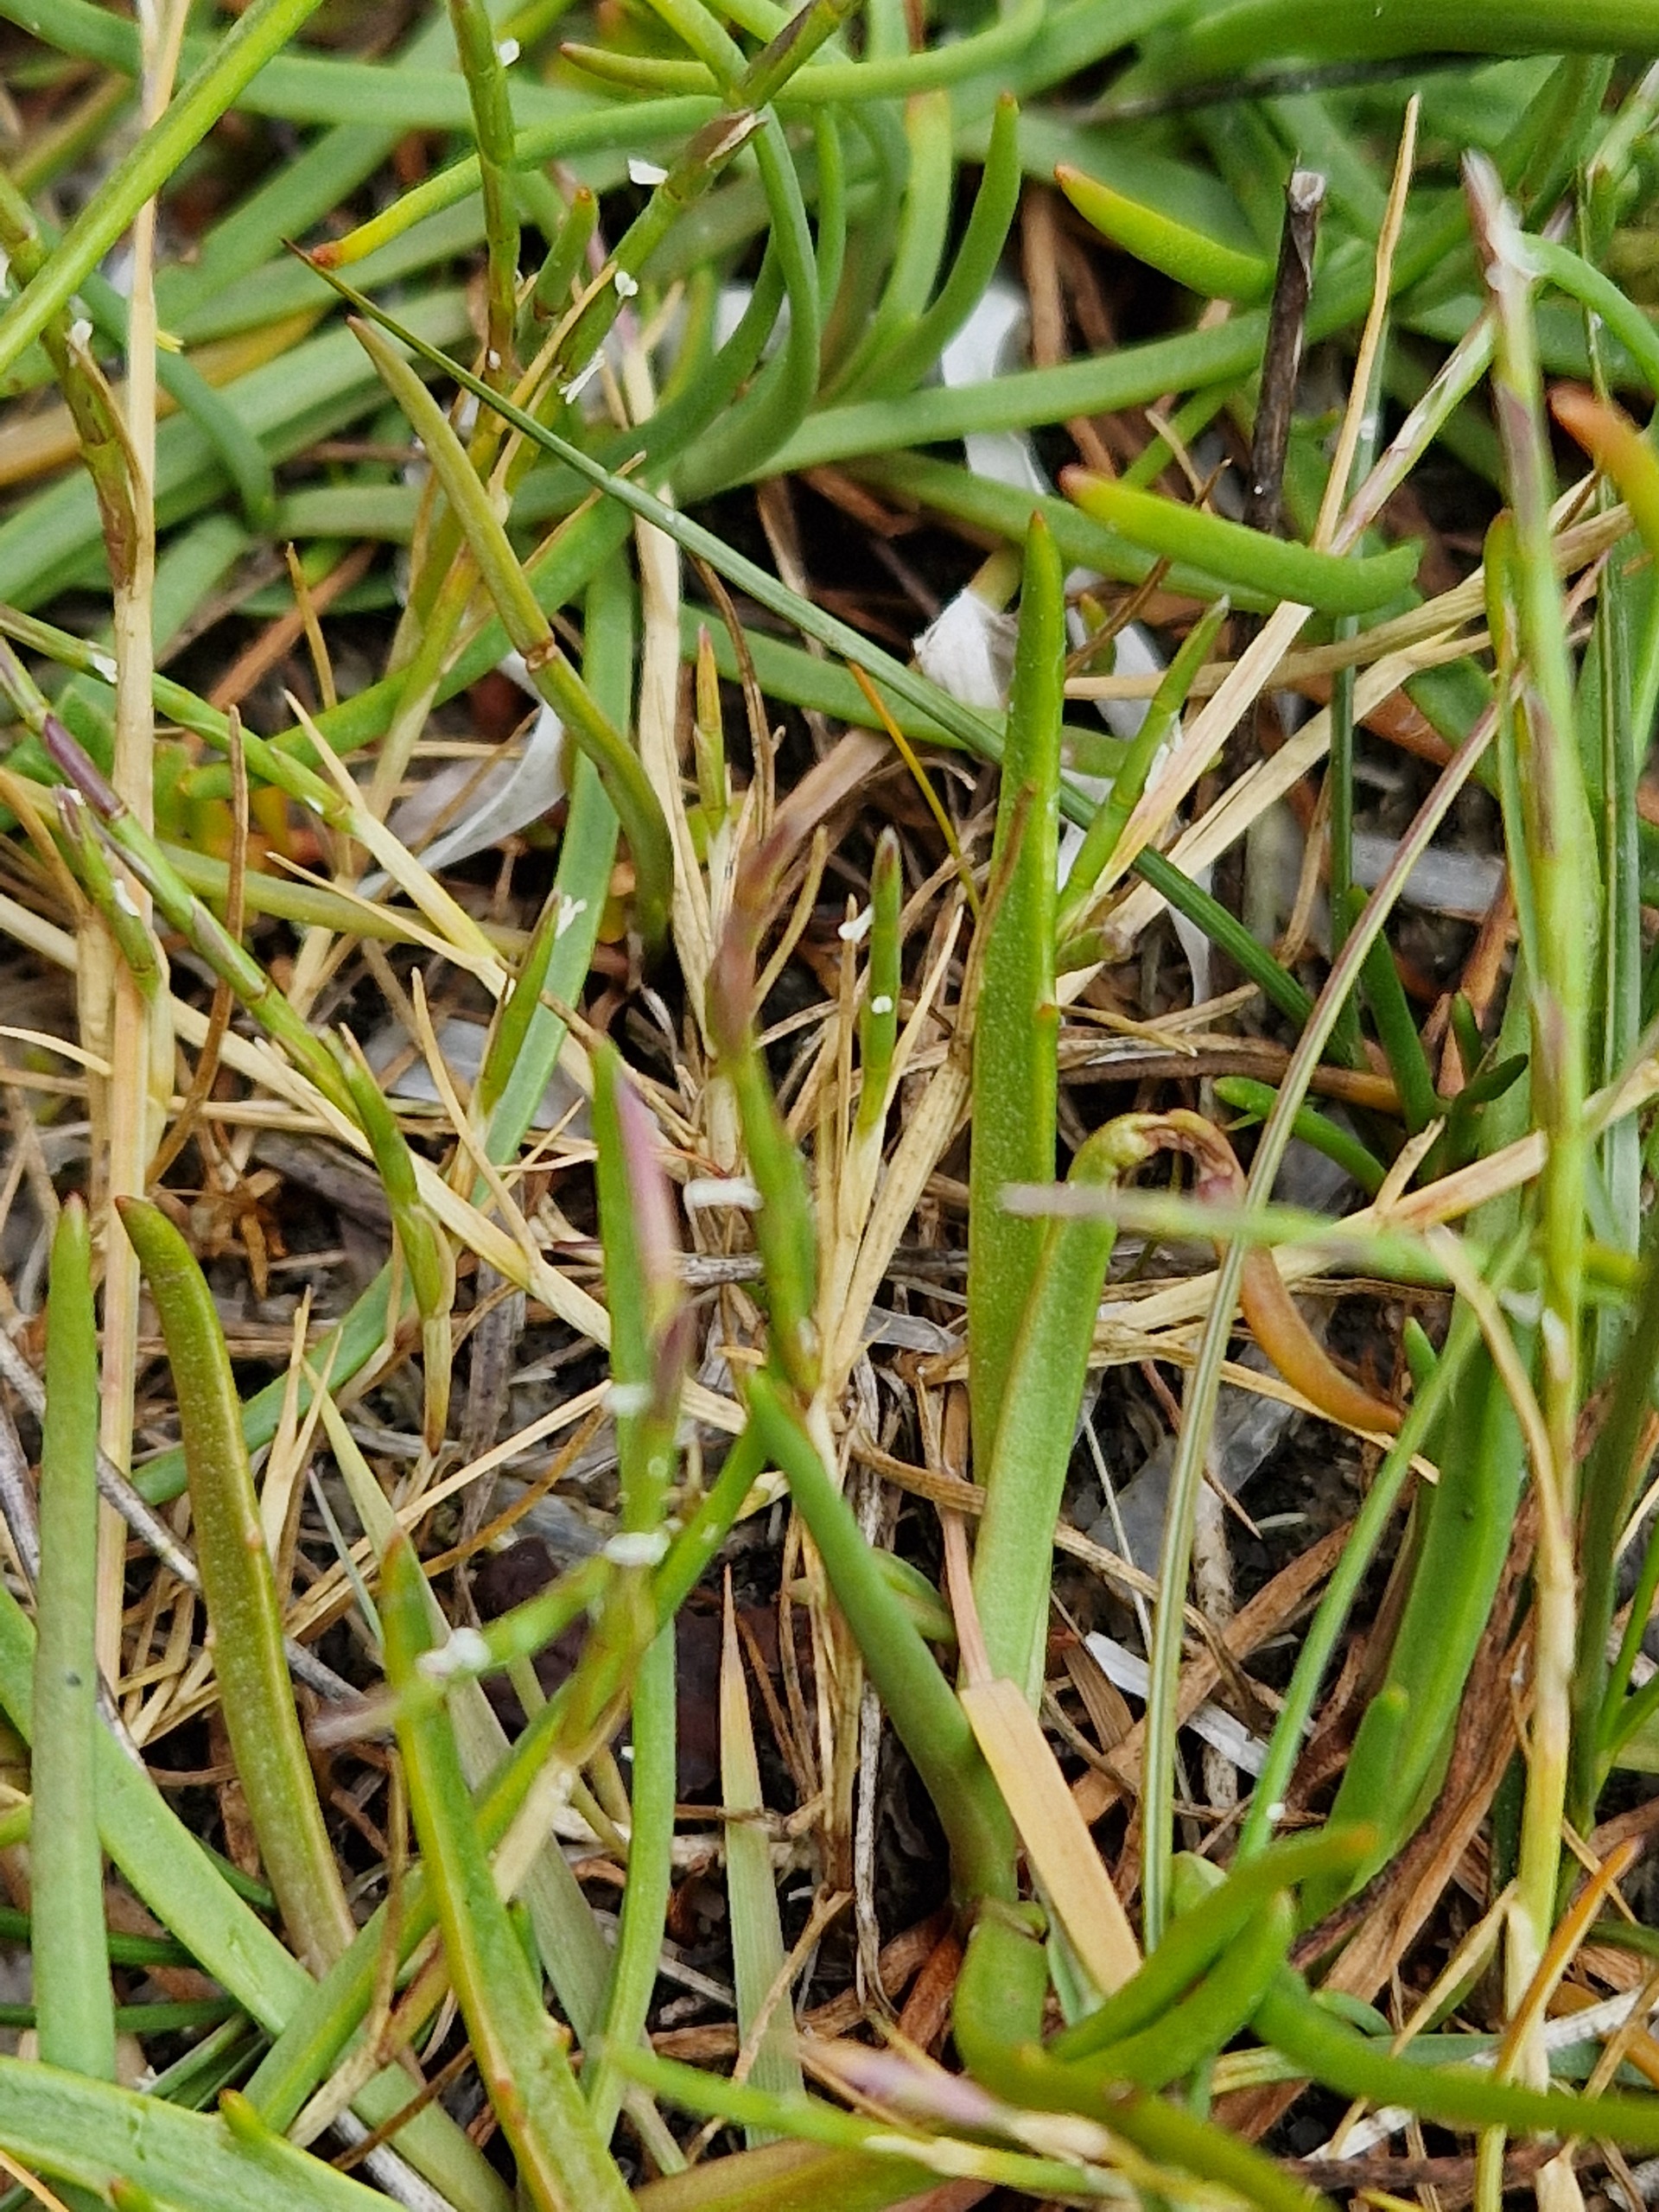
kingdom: Plantae
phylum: Tracheophyta
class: Liliopsida
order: Poales
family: Poaceae
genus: Parapholis
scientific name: Parapholis strigosa
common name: Spidshale
